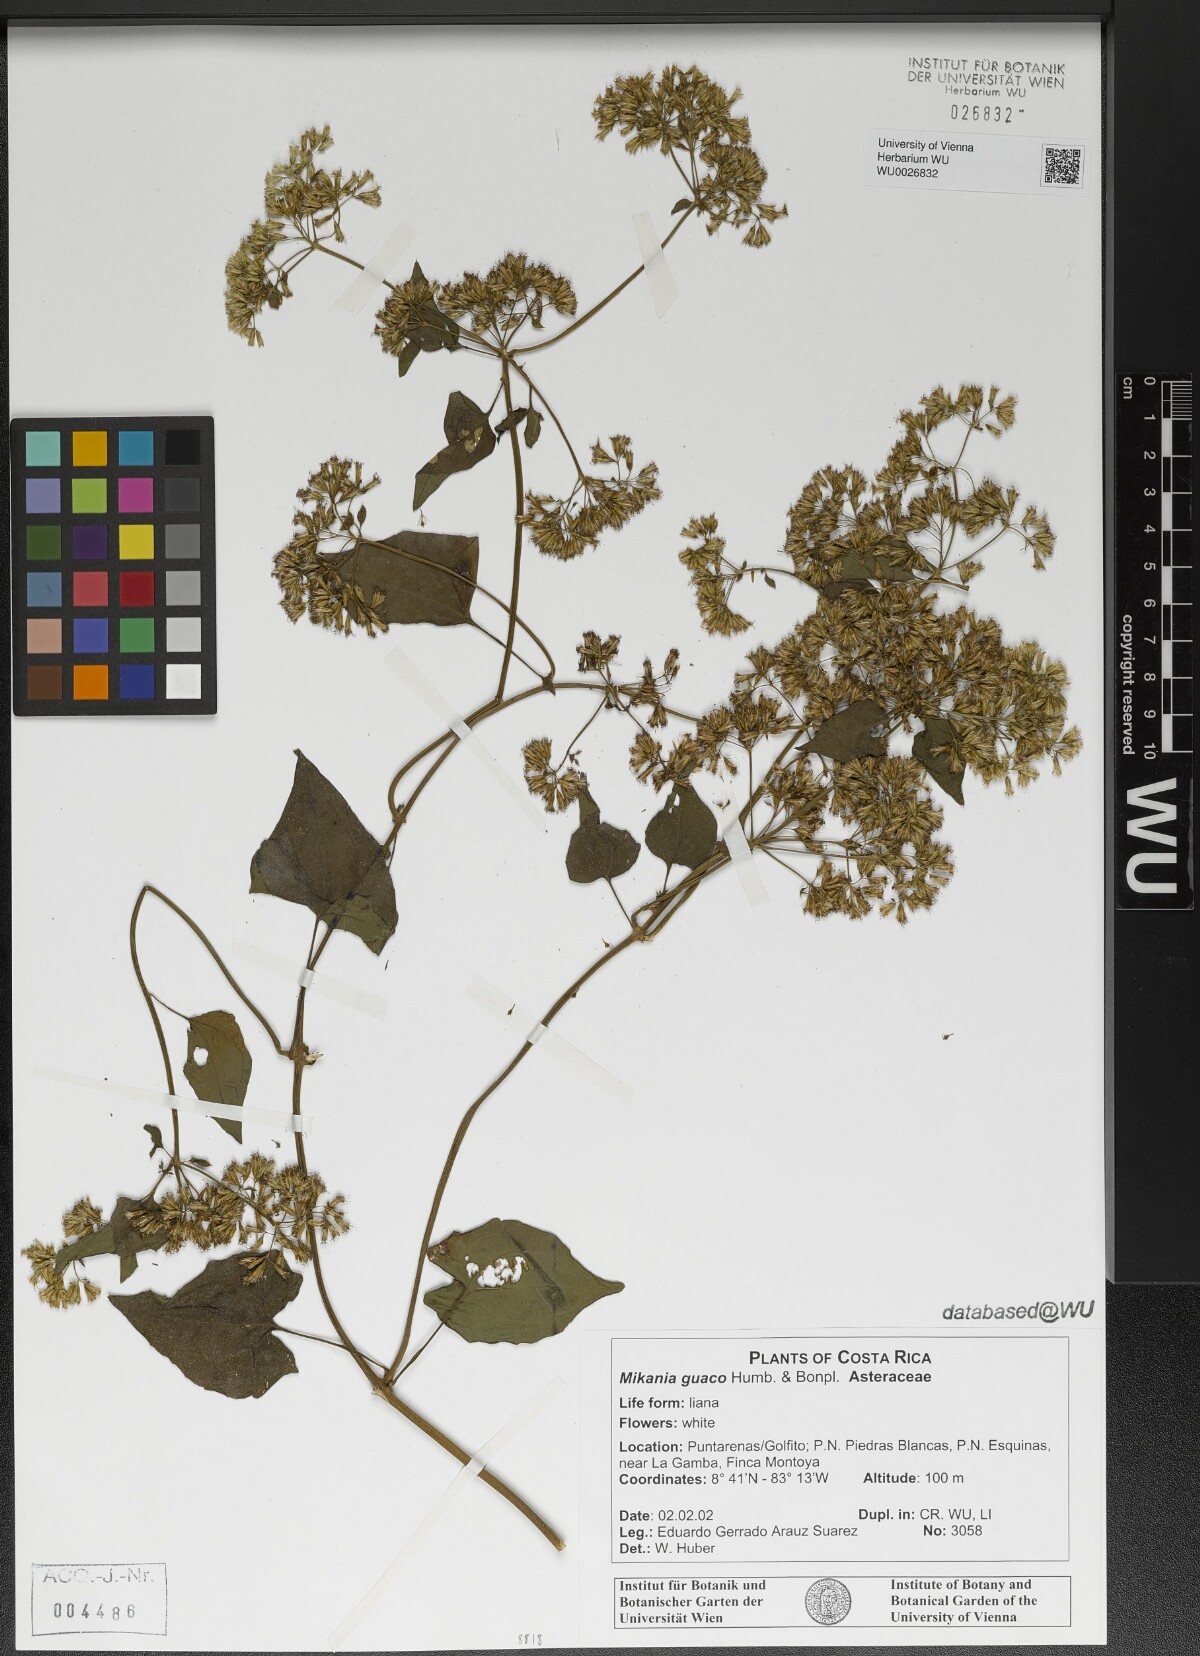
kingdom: Plantae
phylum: Tracheophyta
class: Magnoliopsida
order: Asterales
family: Asteraceae
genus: Mikania
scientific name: Mikania guaco
